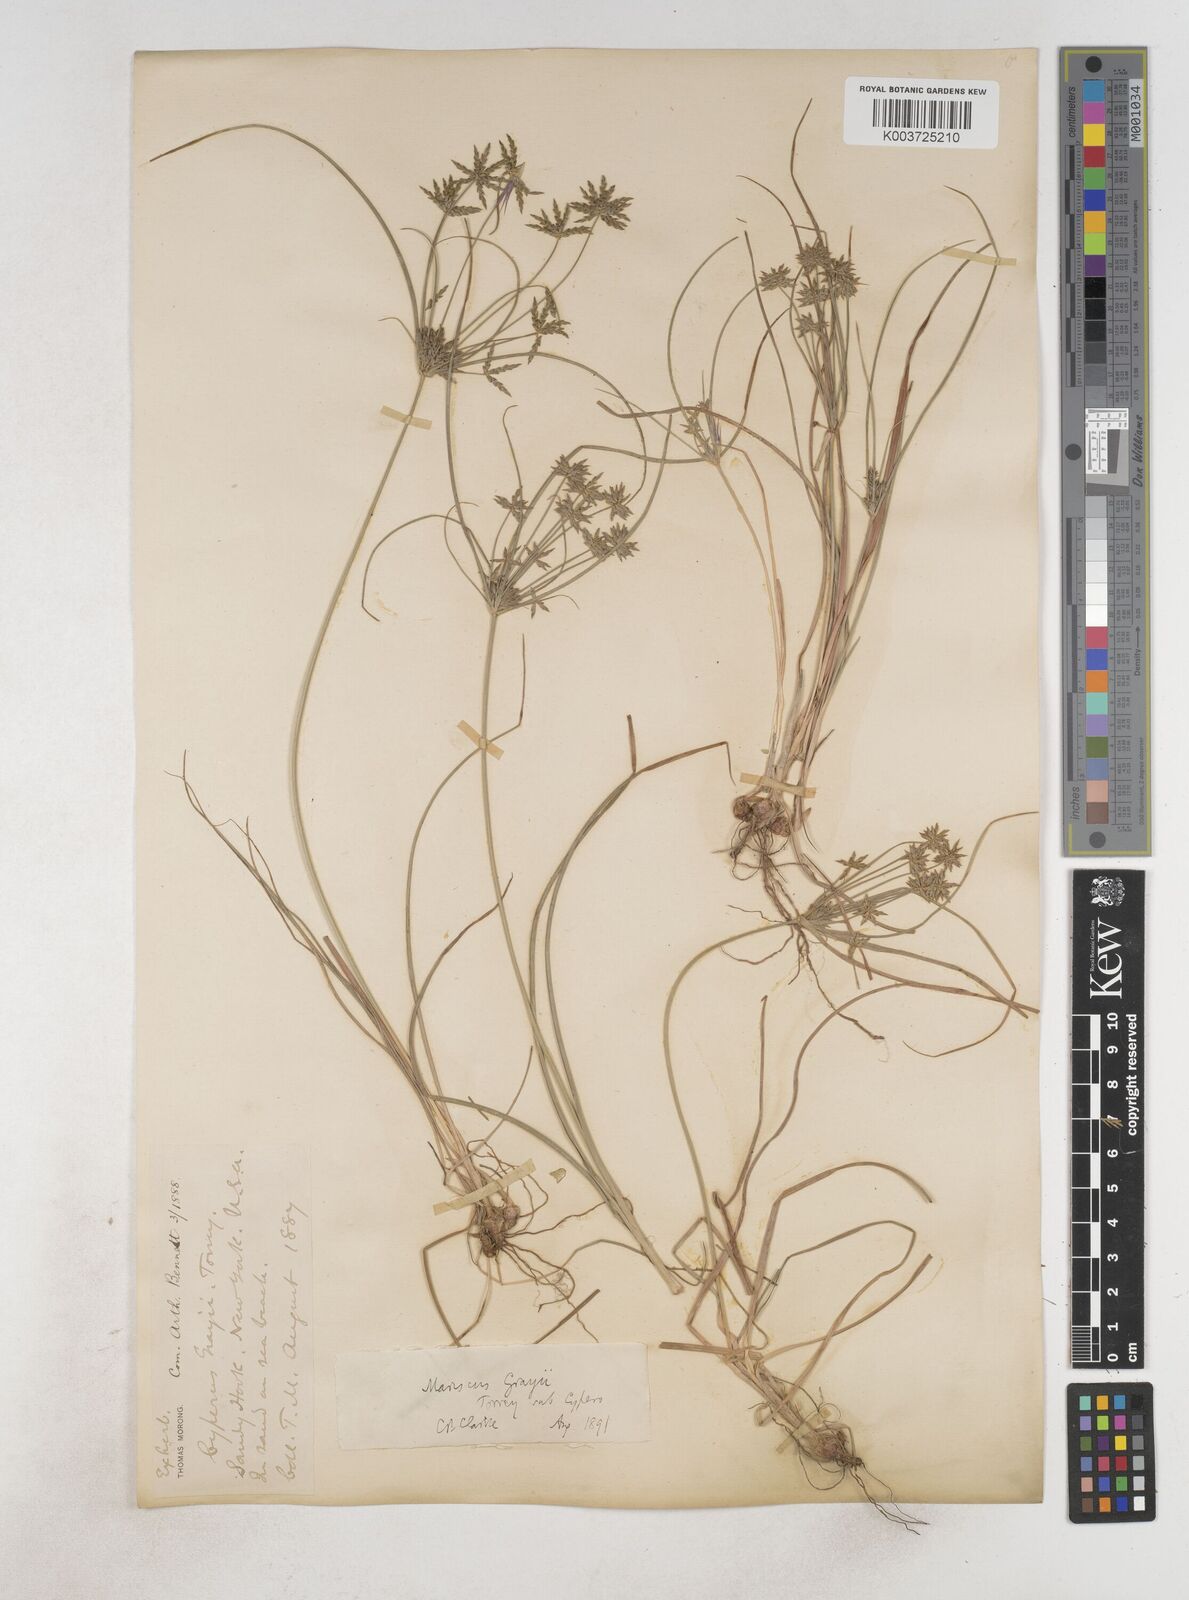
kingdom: Plantae
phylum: Tracheophyta
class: Liliopsida
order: Poales
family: Cyperaceae
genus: Cyperus
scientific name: Cyperus grayi
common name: Gray's flat sedge
